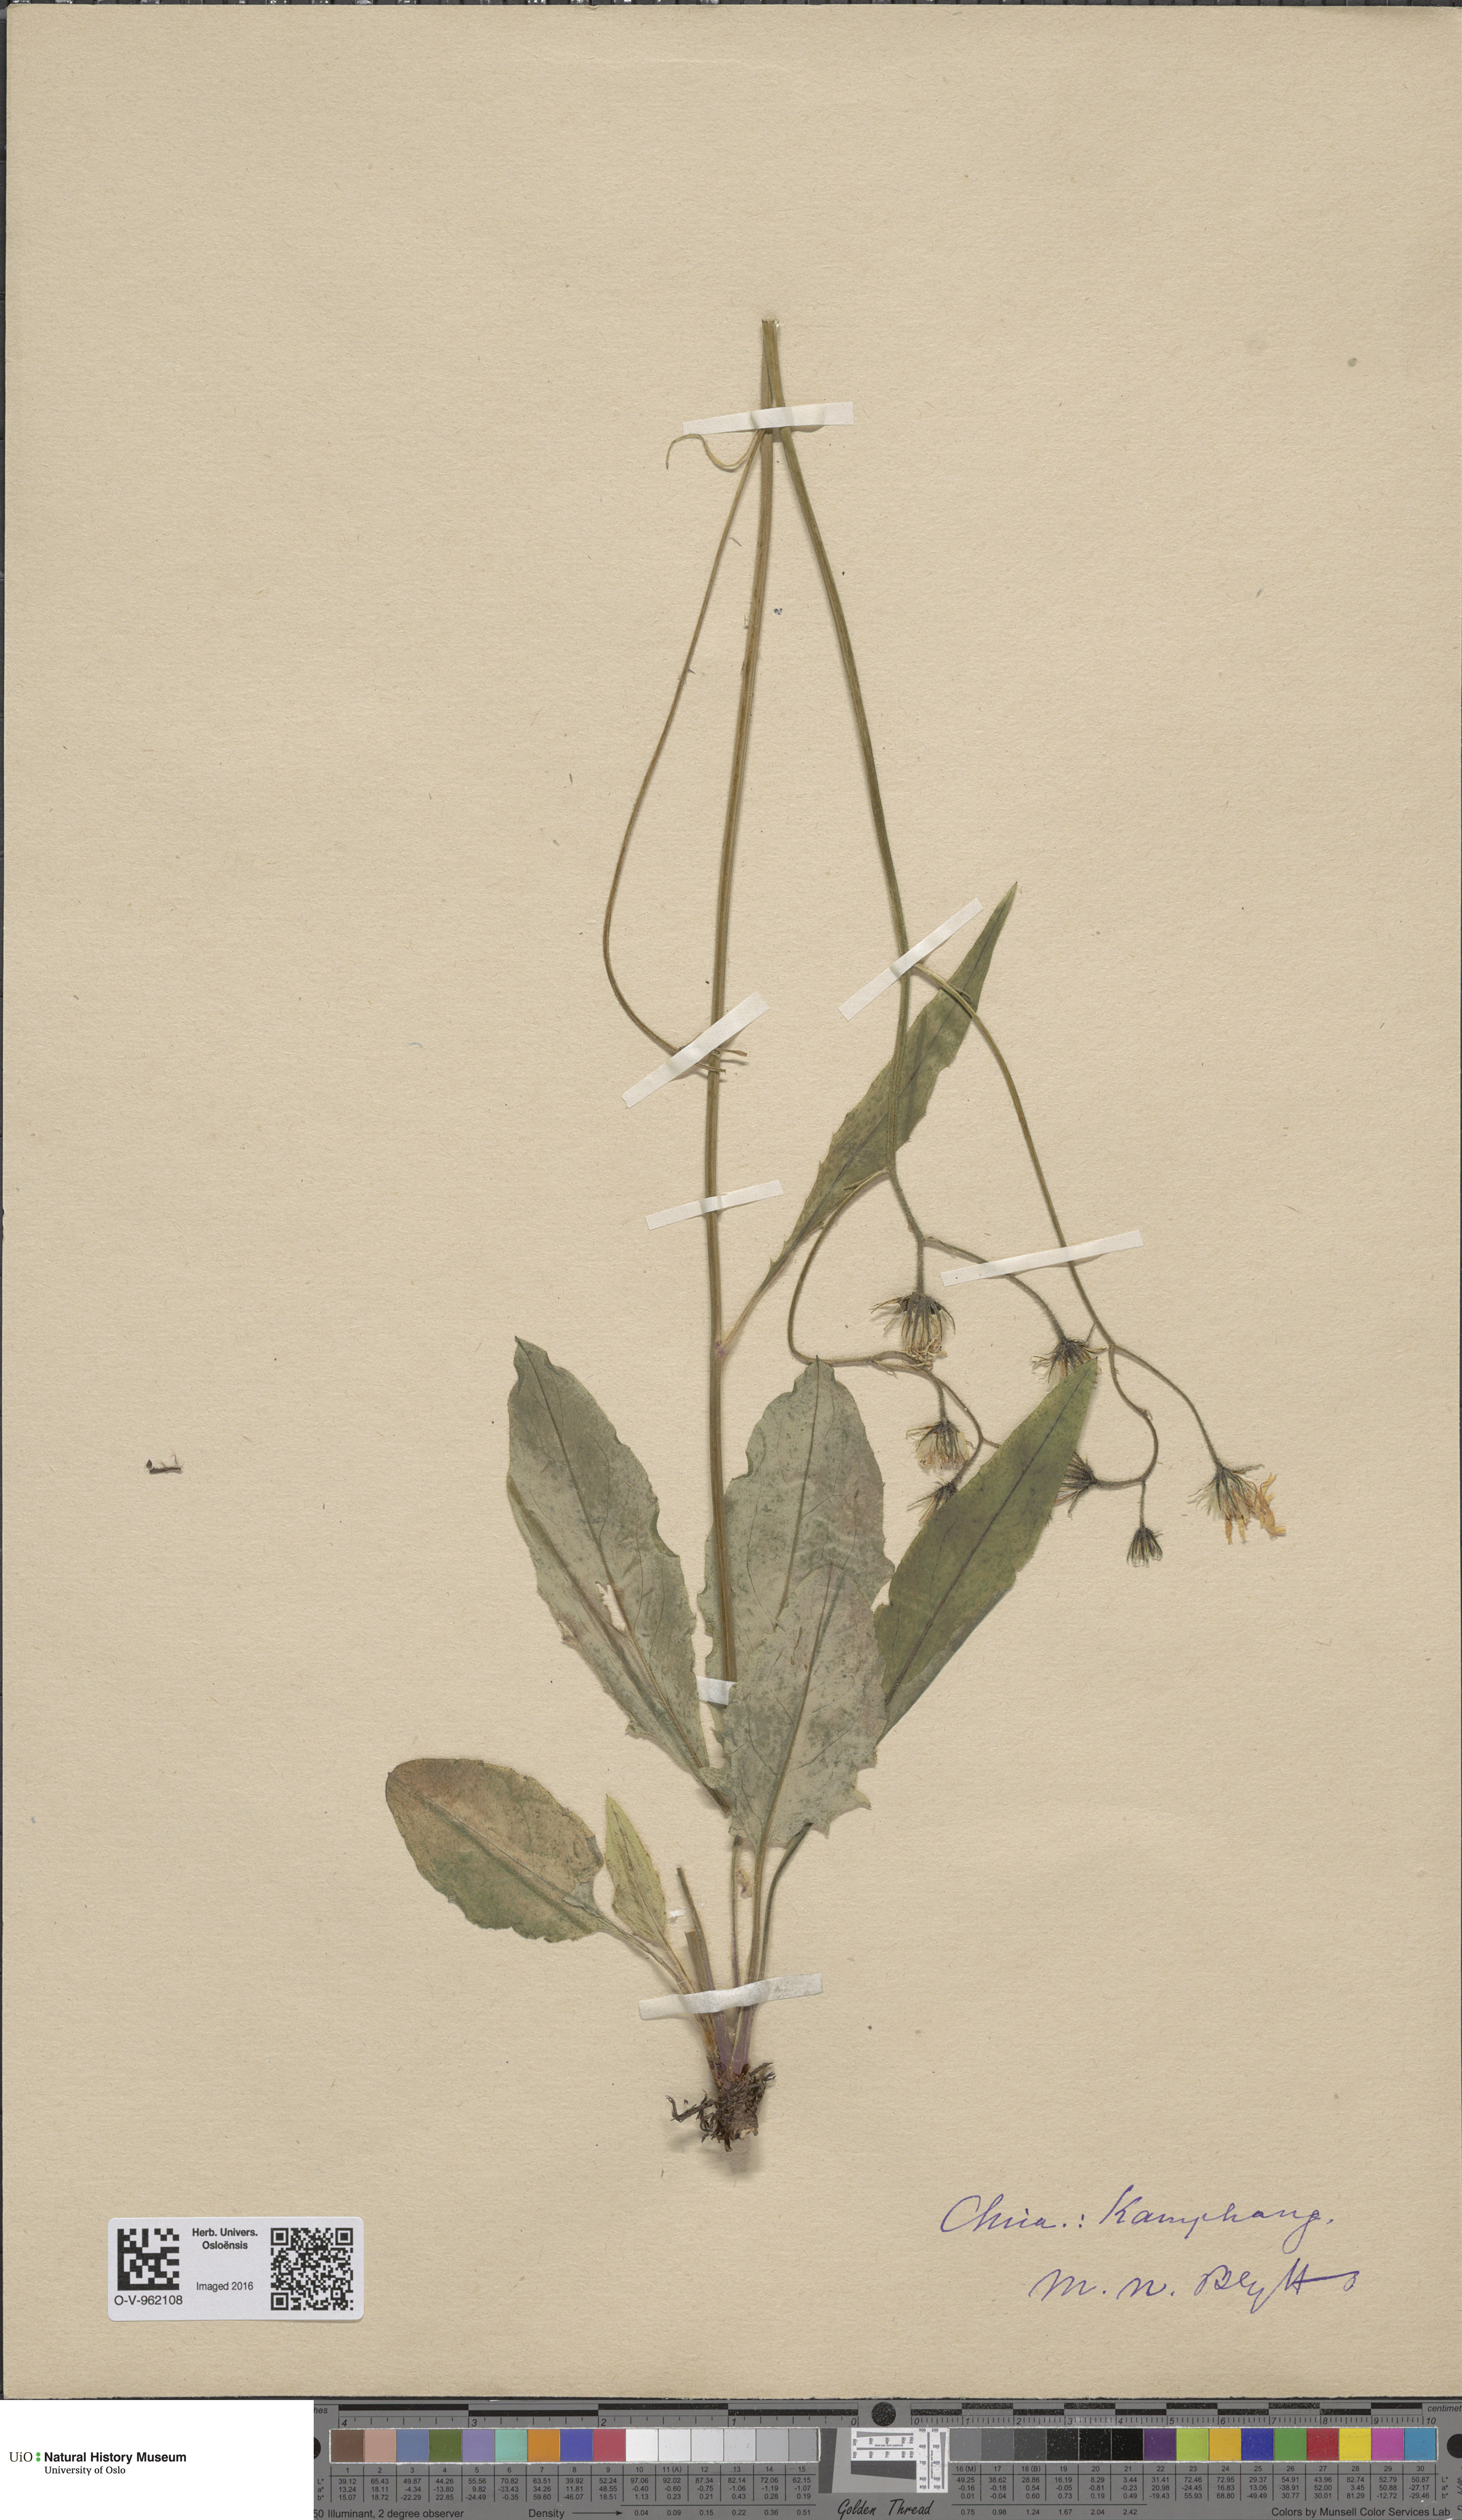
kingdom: Plantae
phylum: Tracheophyta
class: Magnoliopsida
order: Asterales
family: Asteraceae
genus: Hieracium
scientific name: Hieracium
